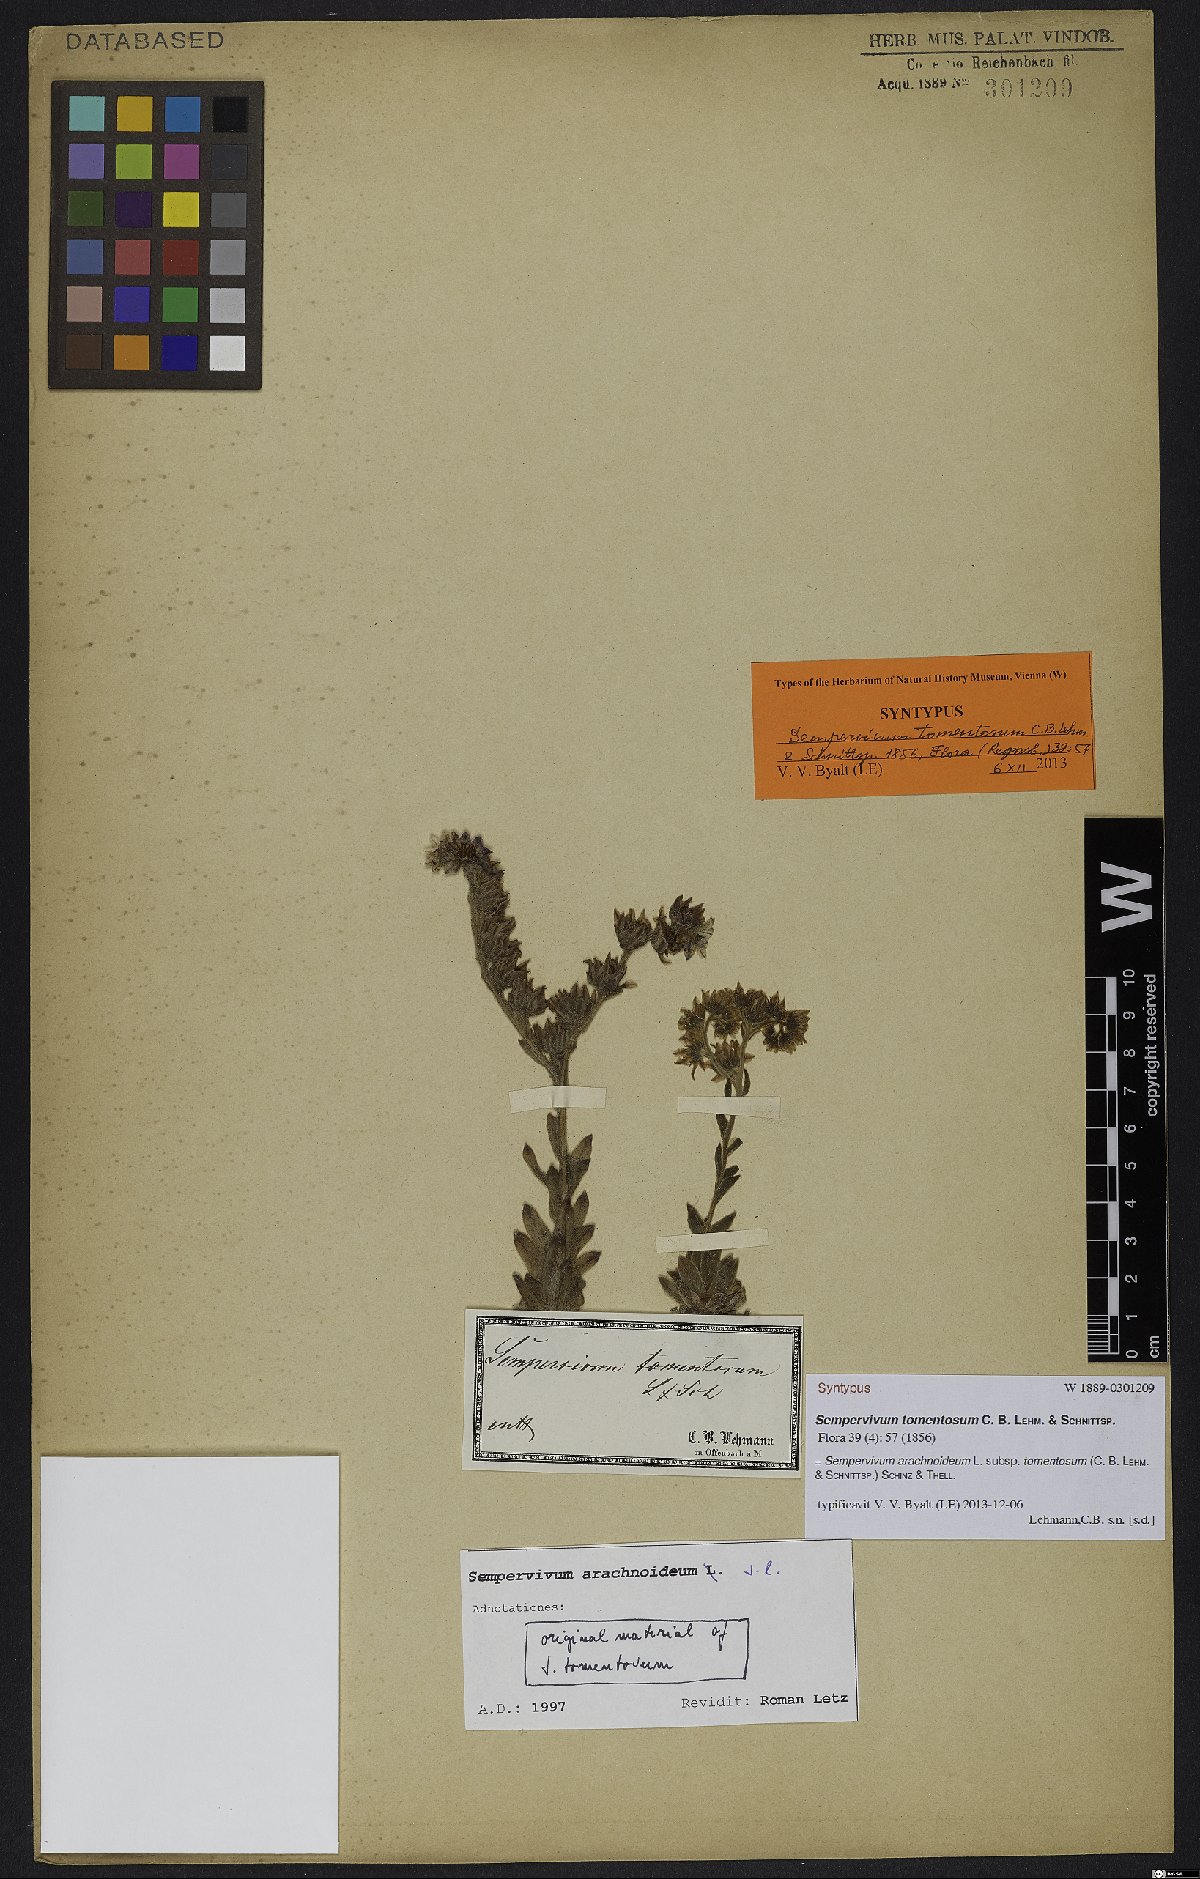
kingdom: Plantae
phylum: Tracheophyta
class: Magnoliopsida
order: Saxifragales
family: Crassulaceae
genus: Sempervivum
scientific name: Sempervivum arachnoideum
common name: Cobweb house-leek
